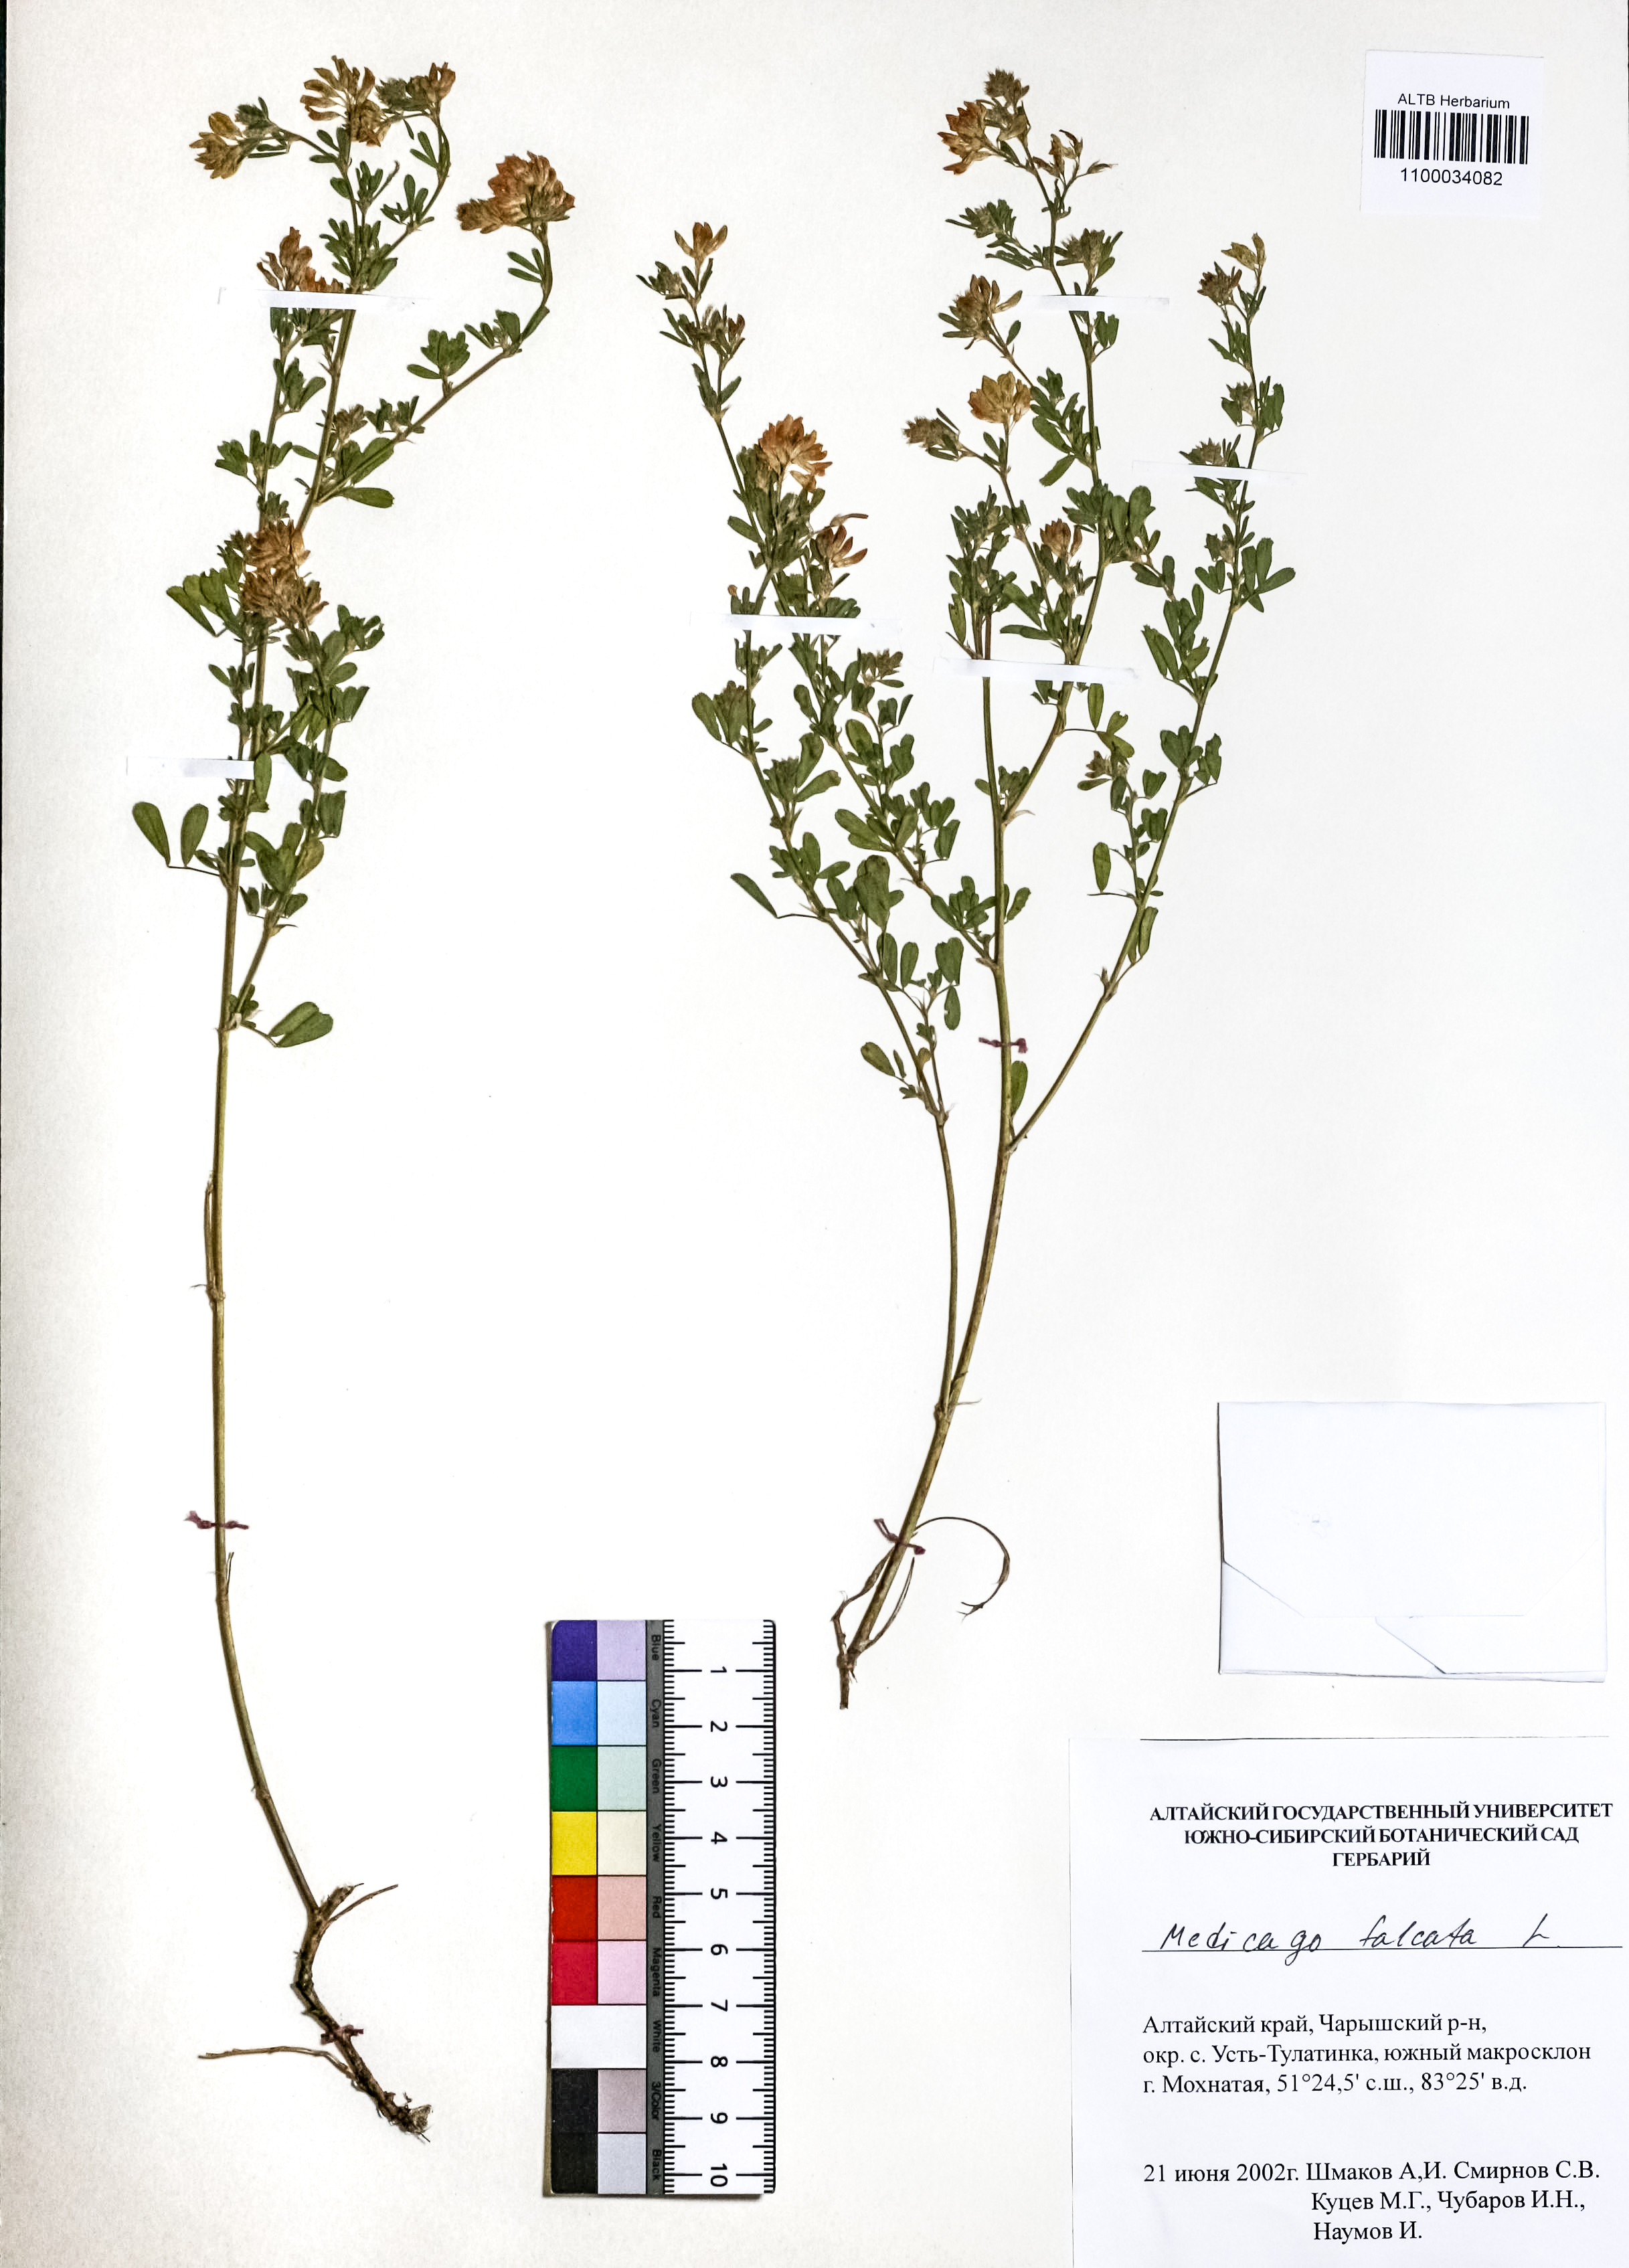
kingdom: Plantae
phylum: Tracheophyta
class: Magnoliopsida
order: Fabales
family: Fabaceae
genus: Medicago
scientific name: Medicago falcata
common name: Sickle medick
